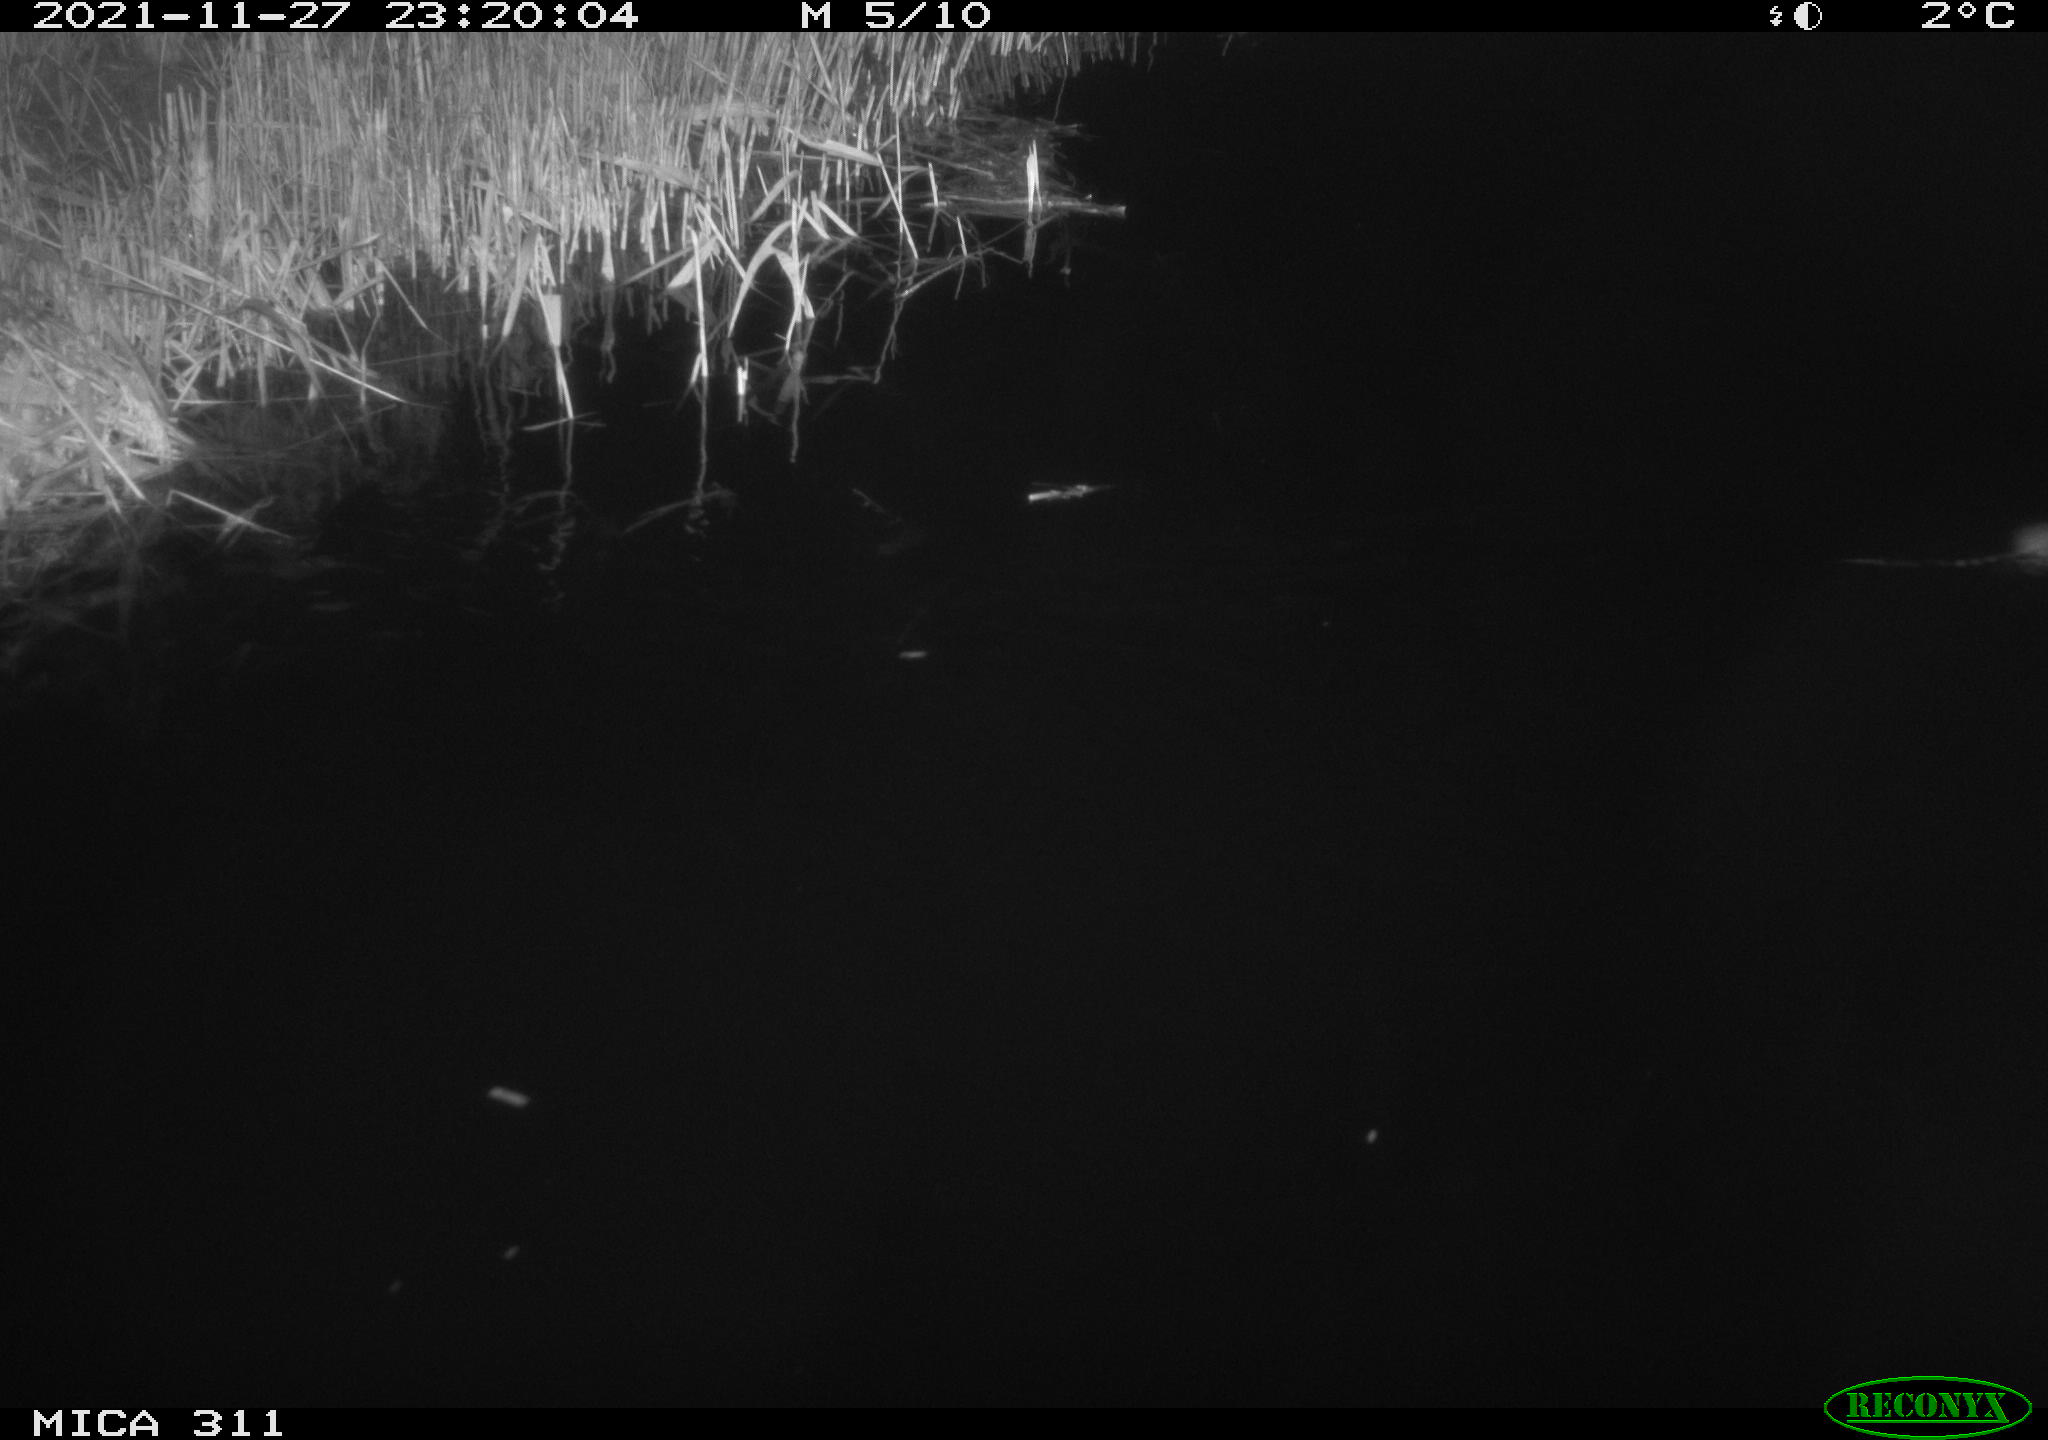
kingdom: Animalia
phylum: Chordata
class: Mammalia
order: Rodentia
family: Muridae
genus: Rattus
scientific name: Rattus norvegicus
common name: Brown rat
